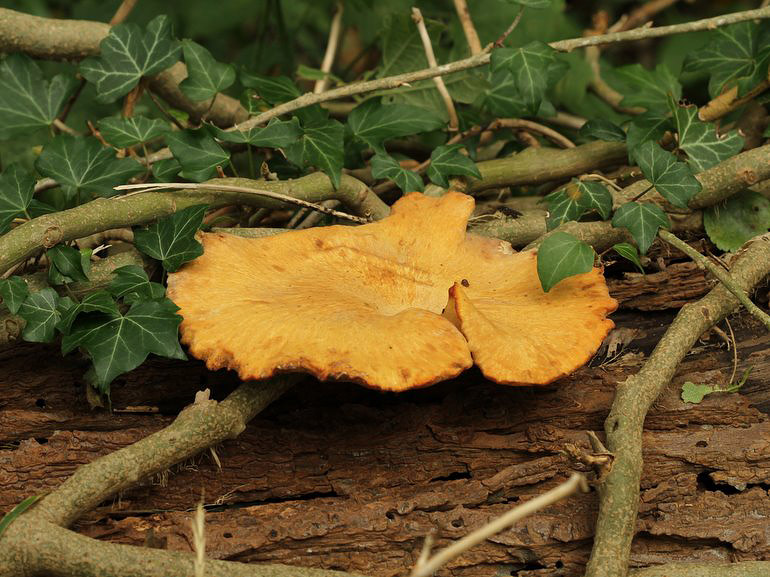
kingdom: Fungi
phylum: Basidiomycota
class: Agaricomycetes
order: Polyporales
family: Polyporaceae
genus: Cerioporus
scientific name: Cerioporus varius
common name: foranderlig stilkporesvamp
